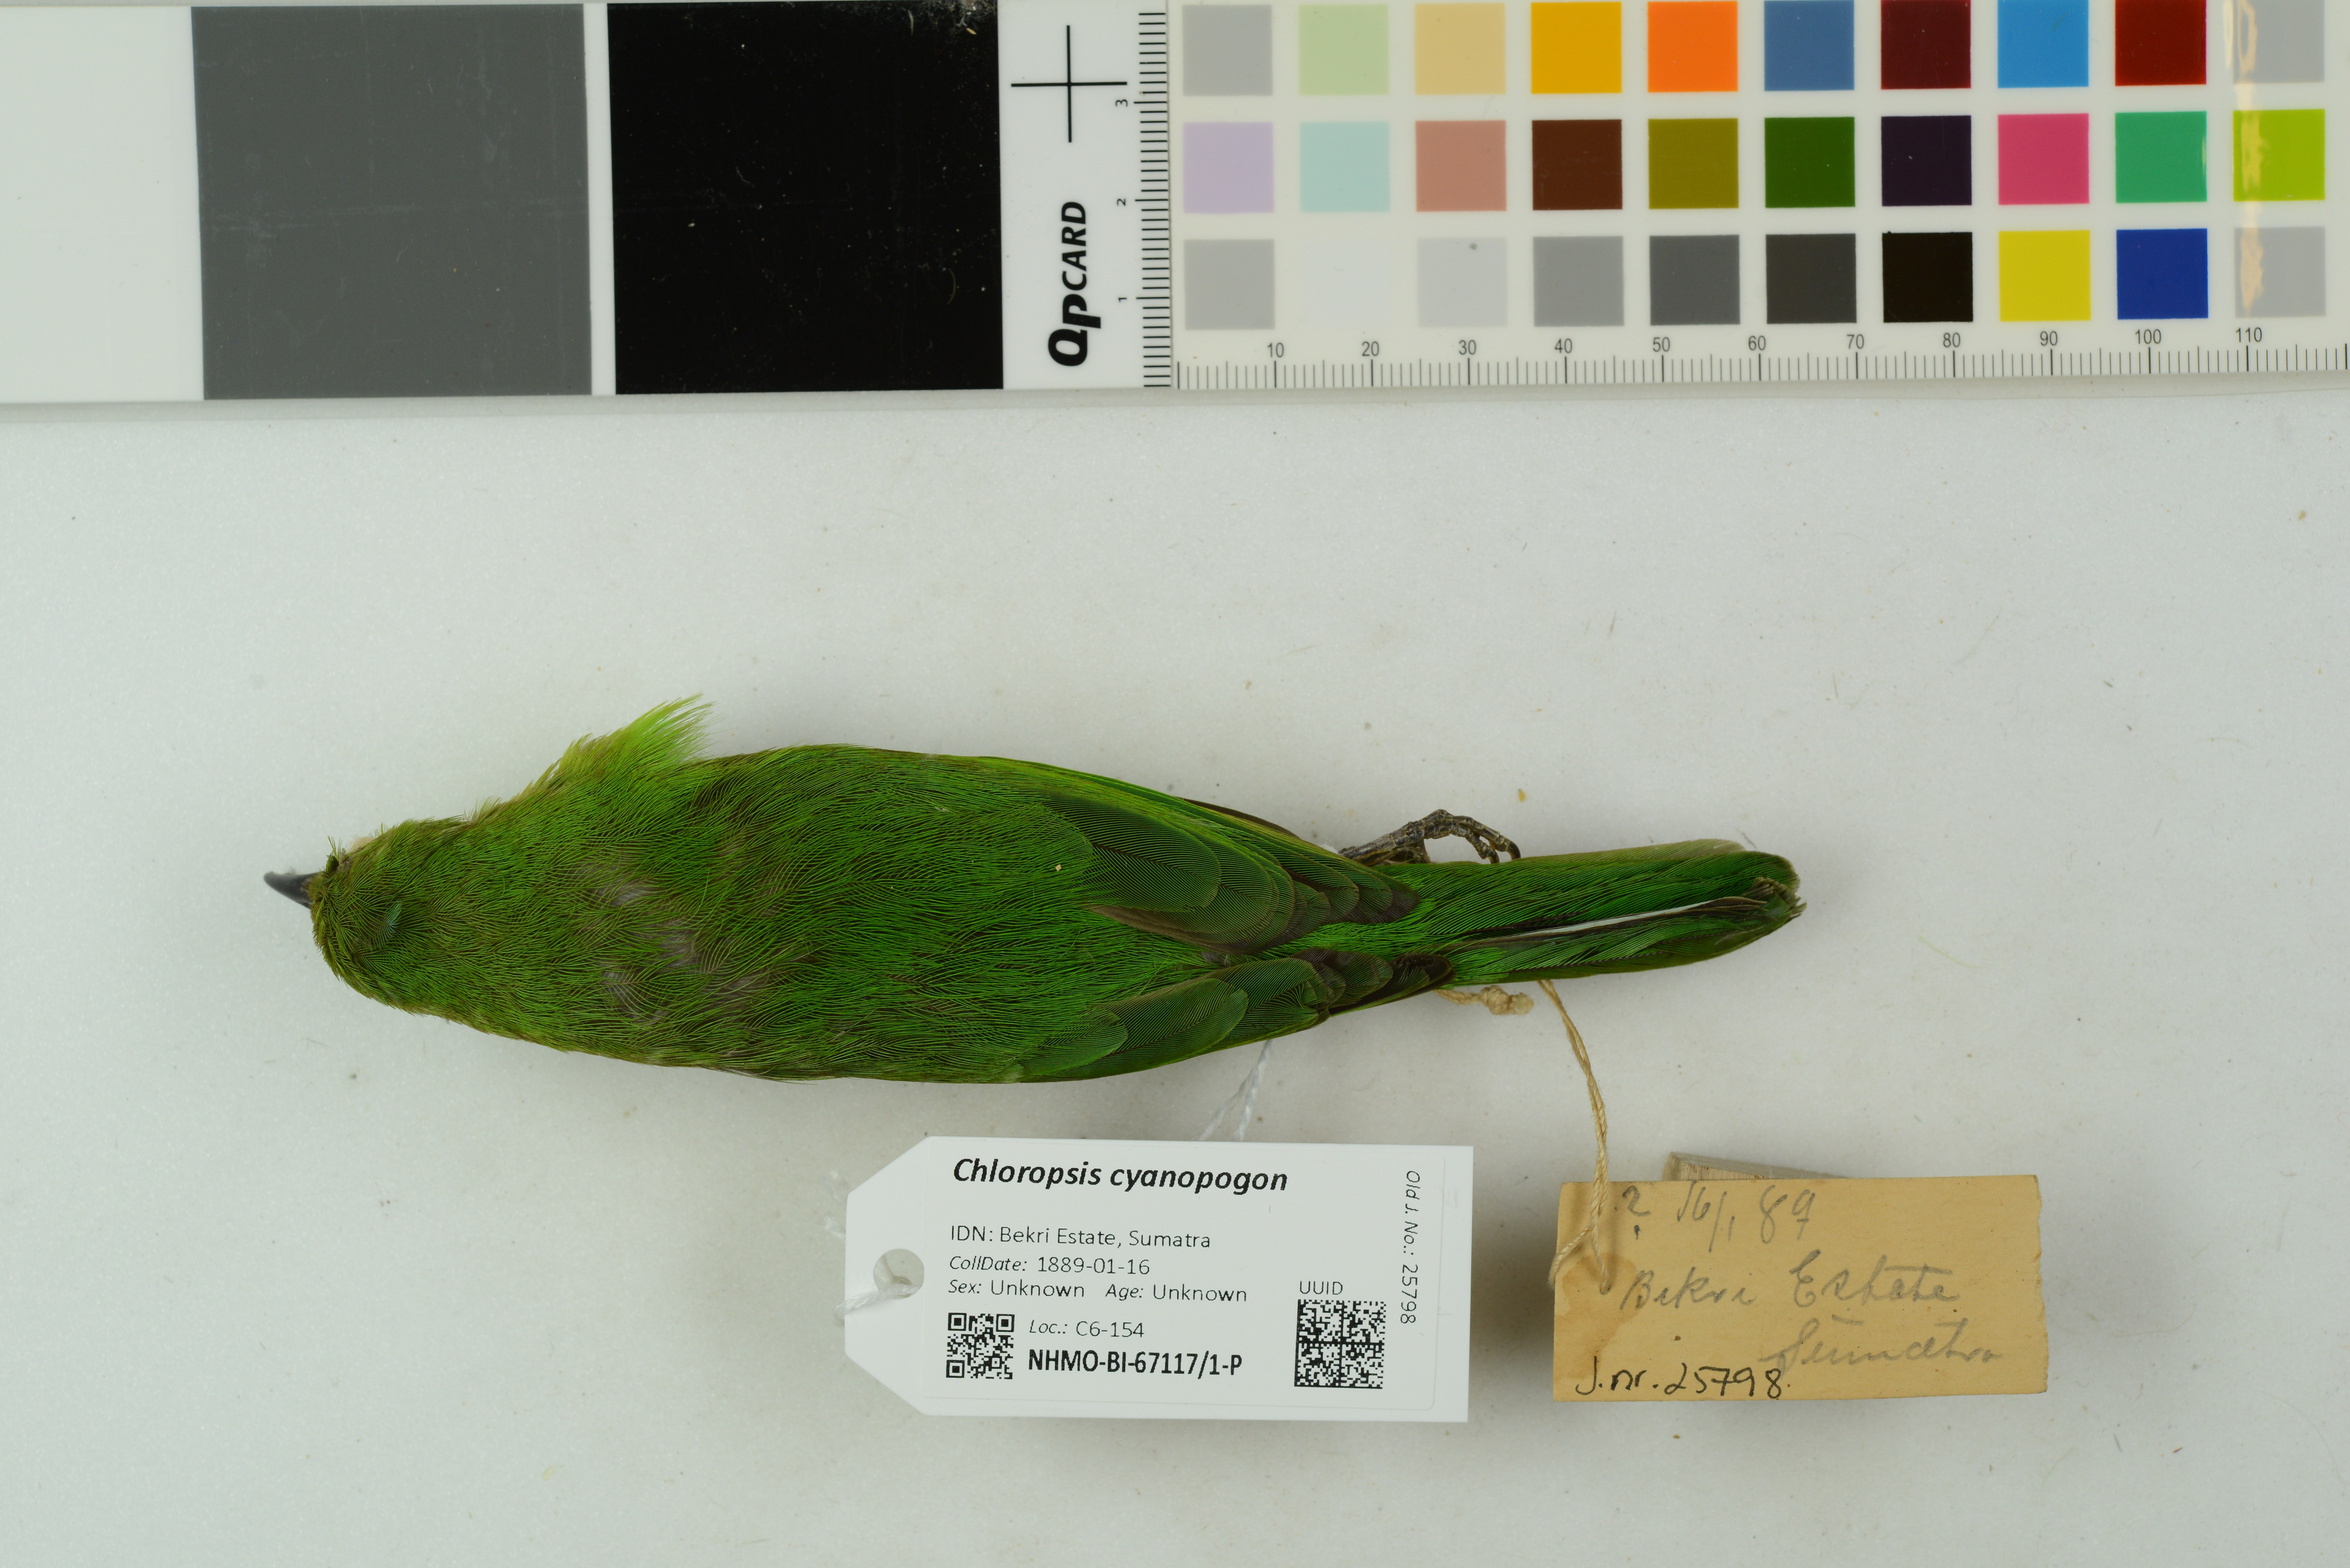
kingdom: Animalia
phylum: Chordata
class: Aves
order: Passeriformes
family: Chloropseidae
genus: Chloropsis
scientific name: Chloropsis cyanopogon
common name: Lesser green leafbird
